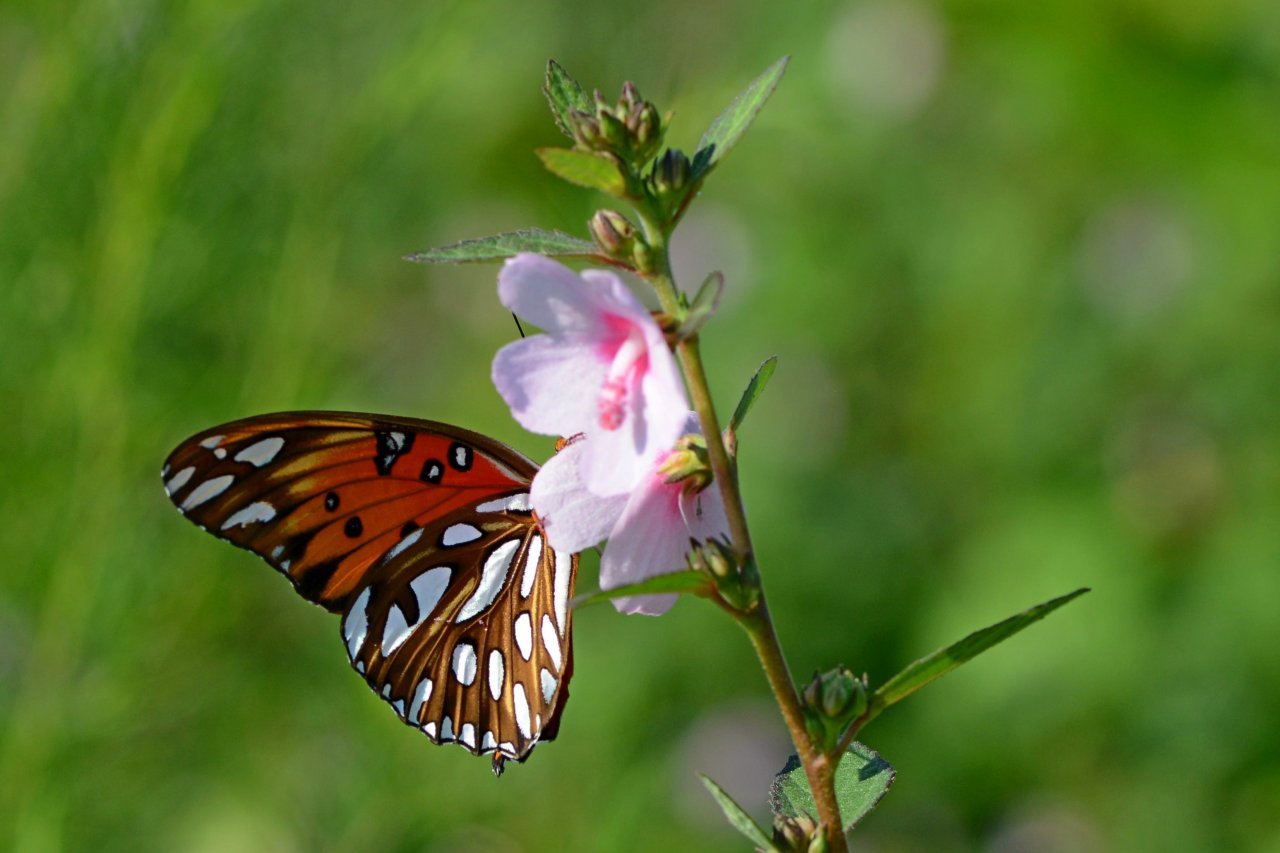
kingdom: Animalia
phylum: Arthropoda
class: Insecta
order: Lepidoptera
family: Nymphalidae
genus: Dione
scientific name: Dione vanillae
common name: Gulf Fritillary
